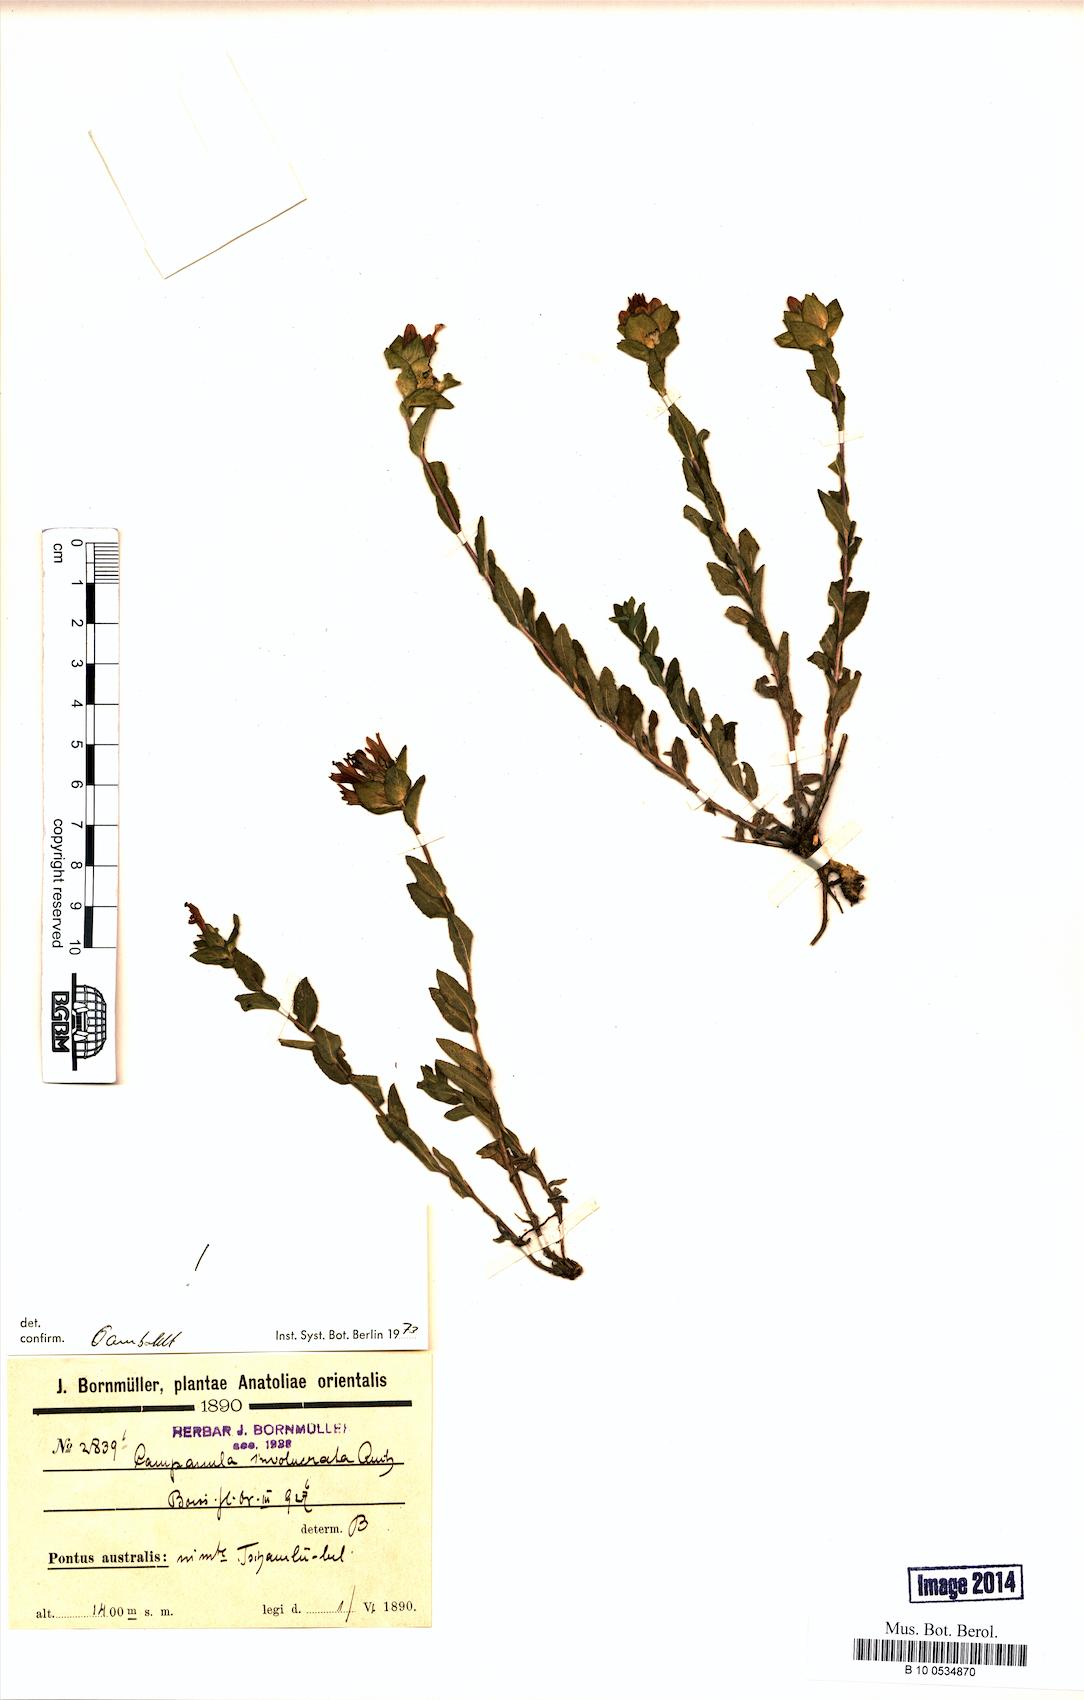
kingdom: Plantae
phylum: Tracheophyta
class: Magnoliopsida
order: Asterales
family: Campanulaceae
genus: Campanula
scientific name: Campanula involucrata
